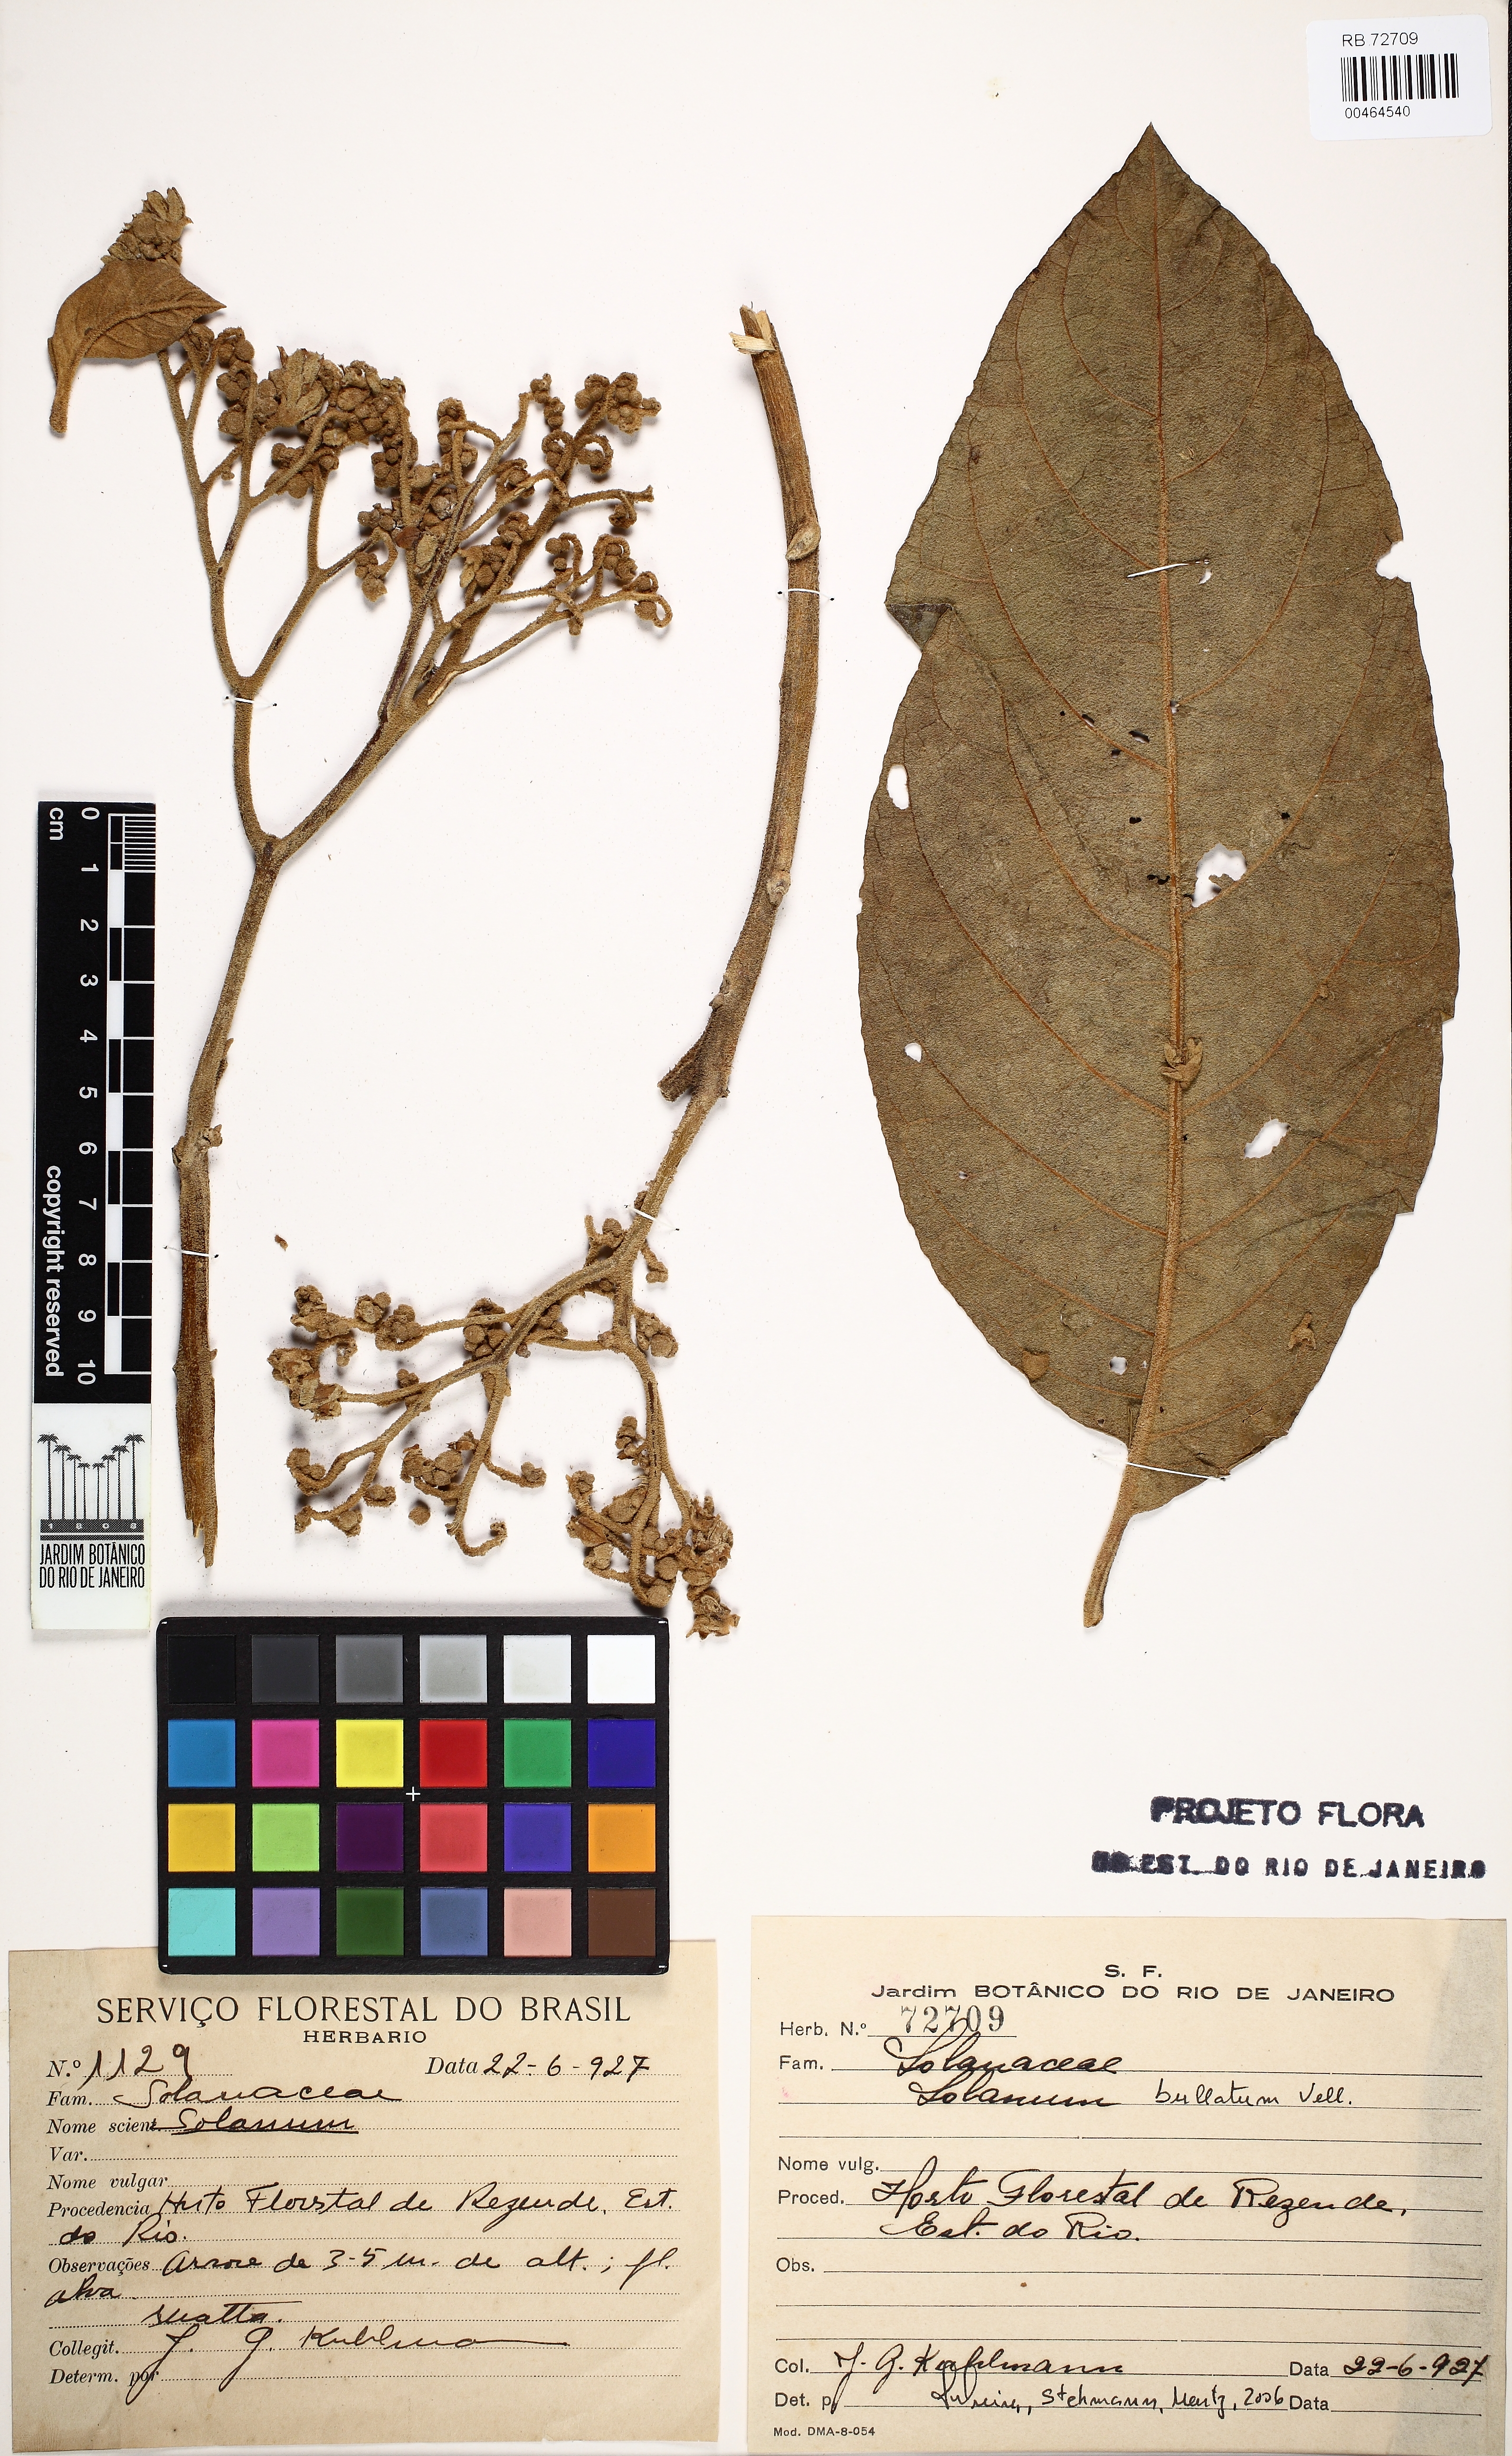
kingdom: Plantae
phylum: Tracheophyta
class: Magnoliopsida
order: Solanales
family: Solanaceae
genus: Solanum
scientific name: Solanum bullatum
